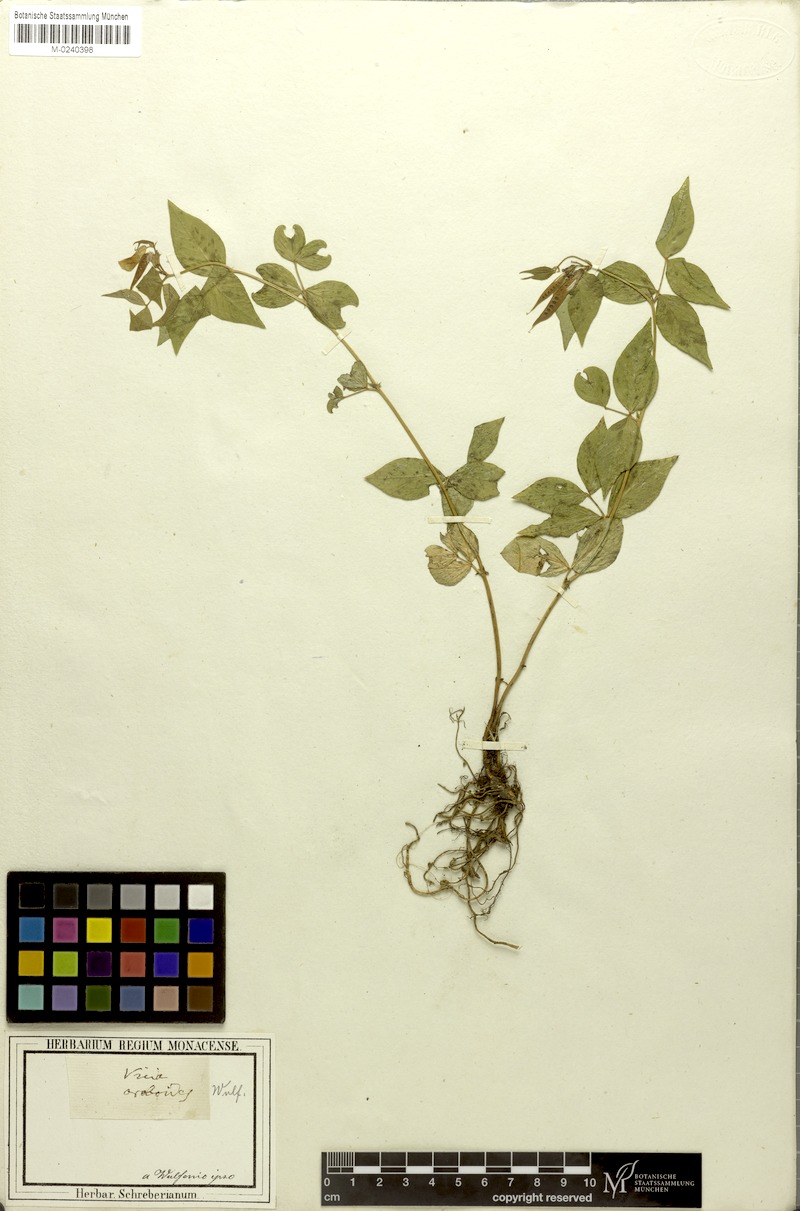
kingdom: Plantae
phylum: Tracheophyta
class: Magnoliopsida
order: Fabales
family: Fabaceae
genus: Vicia
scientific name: Vicia oroboides
